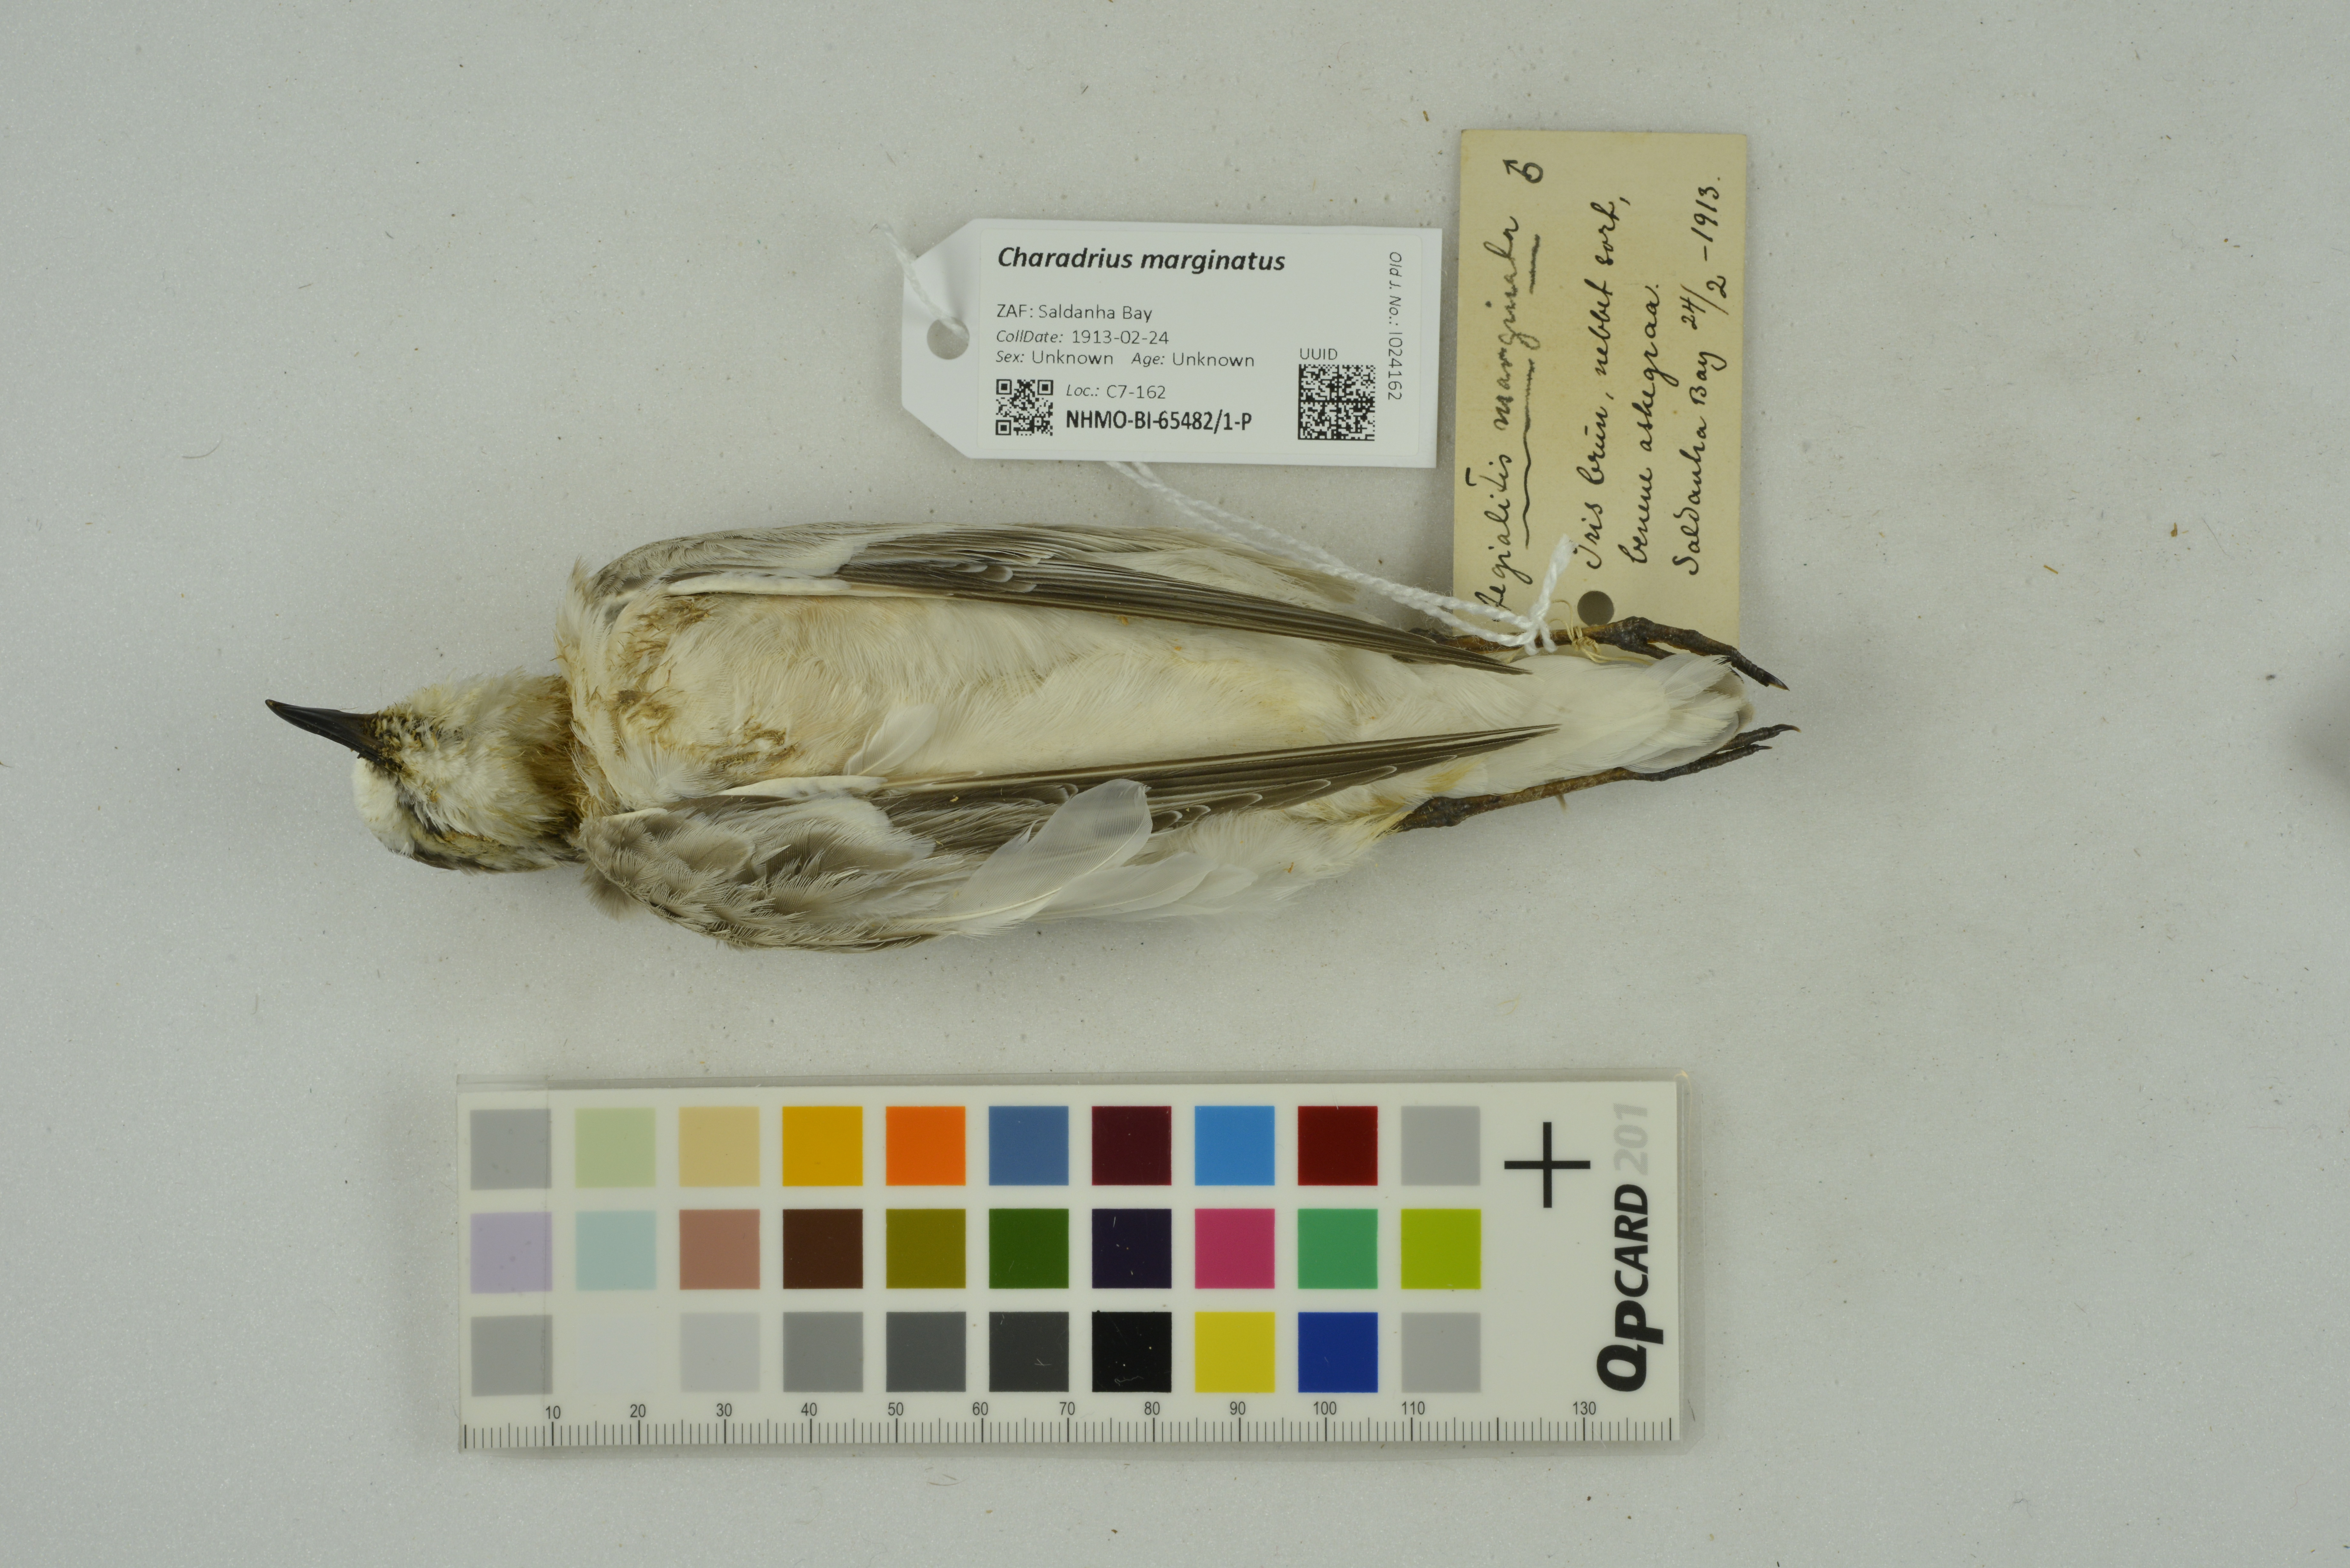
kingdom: Animalia
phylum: Chordata
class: Aves
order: Charadriiformes
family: Charadriidae
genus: Charadrius
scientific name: Charadrius marginatus
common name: White-fronted plover
